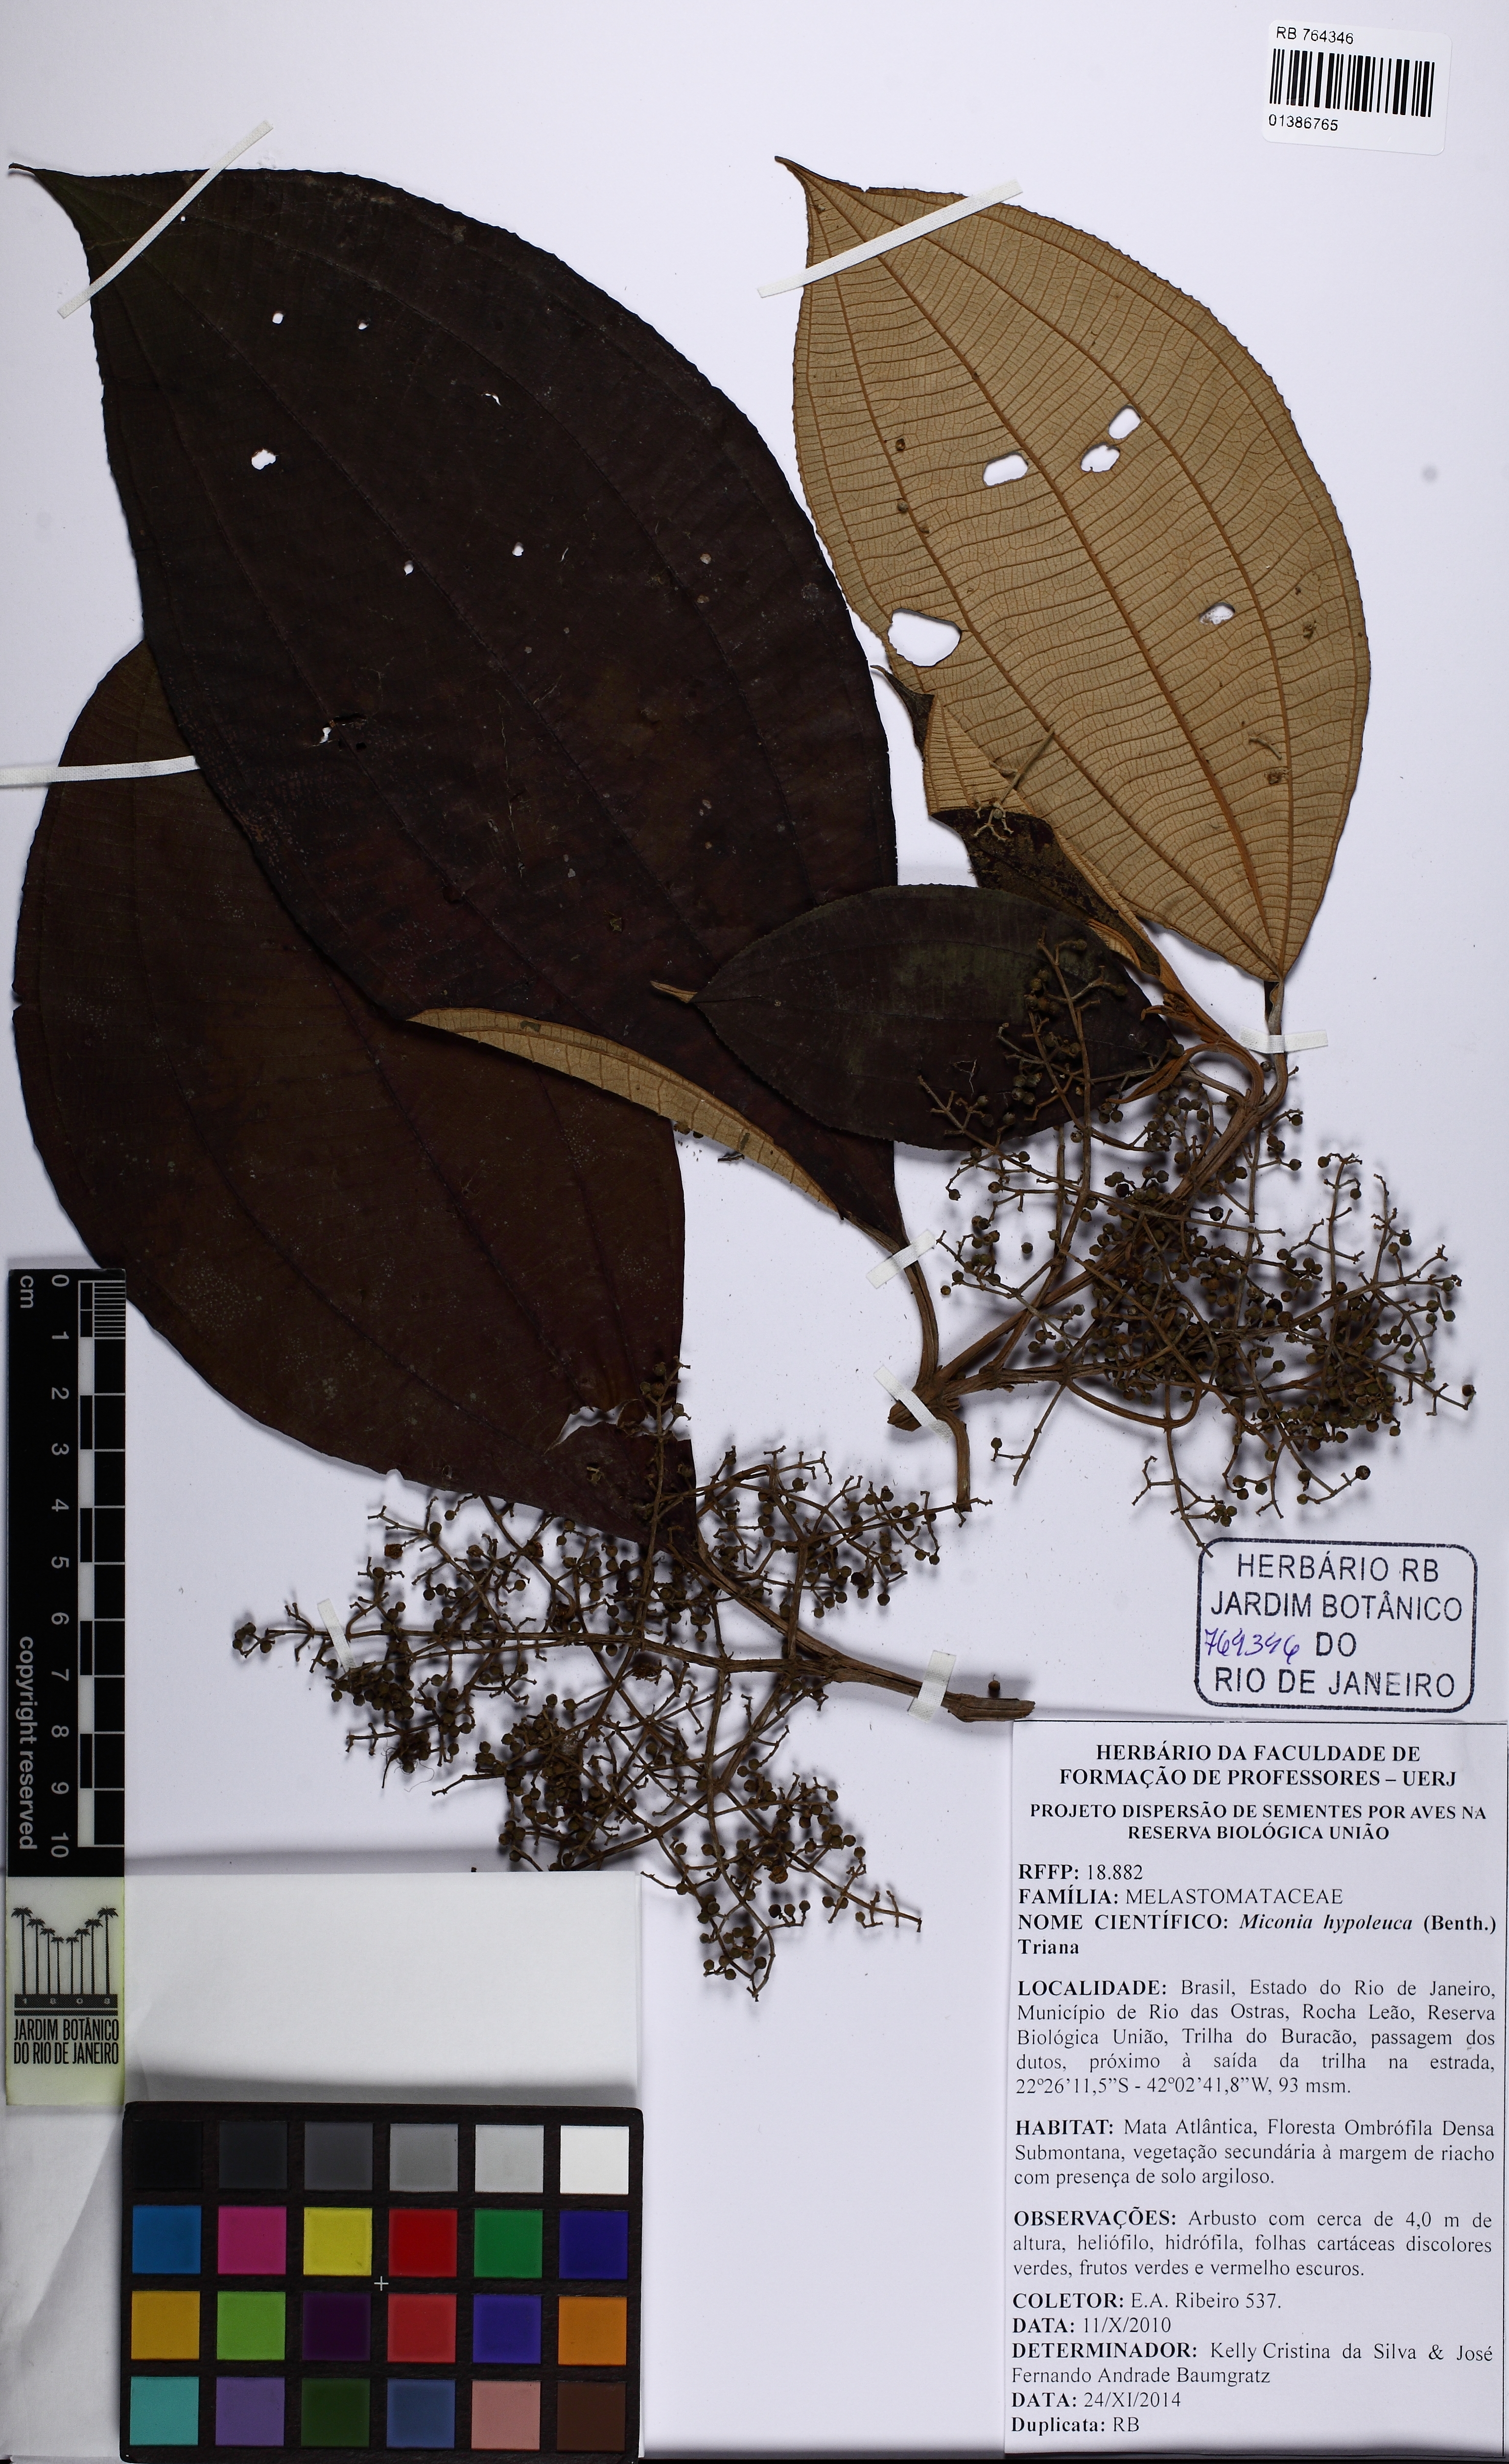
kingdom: Plantae
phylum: Tracheophyta
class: Magnoliopsida
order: Myrtales
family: Melastomataceae
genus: Miconia
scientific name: Miconia hypoleuca
